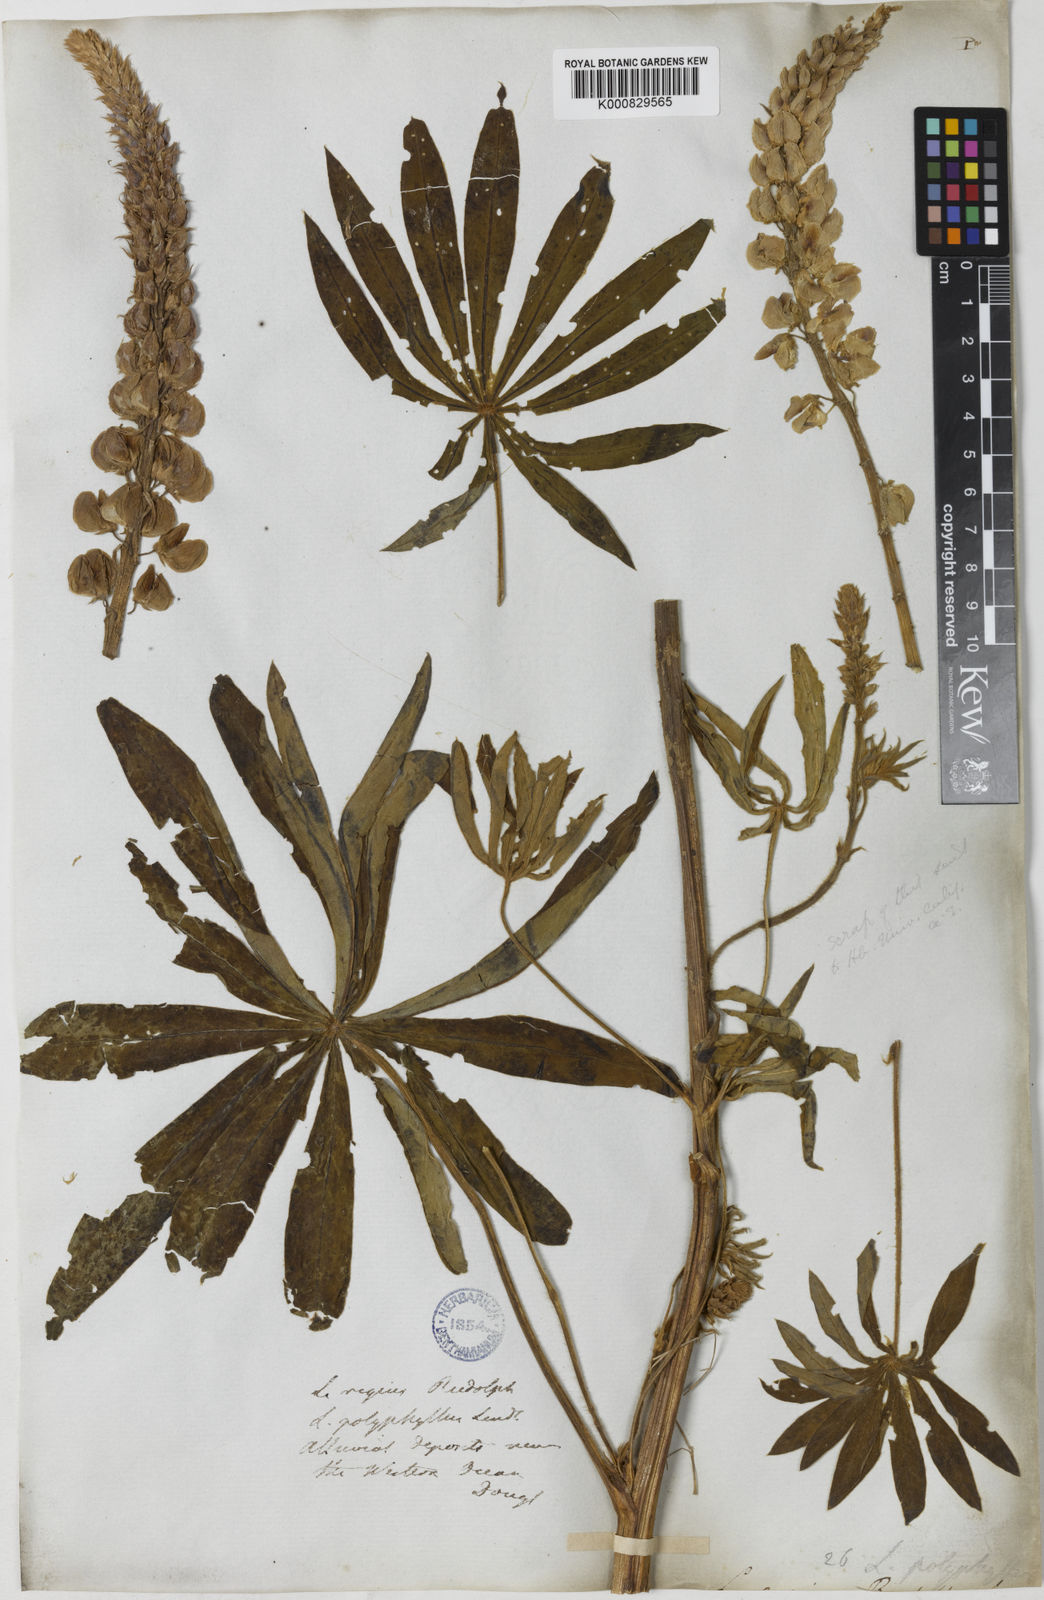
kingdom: Plantae
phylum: Tracheophyta
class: Magnoliopsida
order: Fabales
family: Fabaceae
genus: Lupinus
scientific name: Lupinus polyphyllus
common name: Garden lupin
